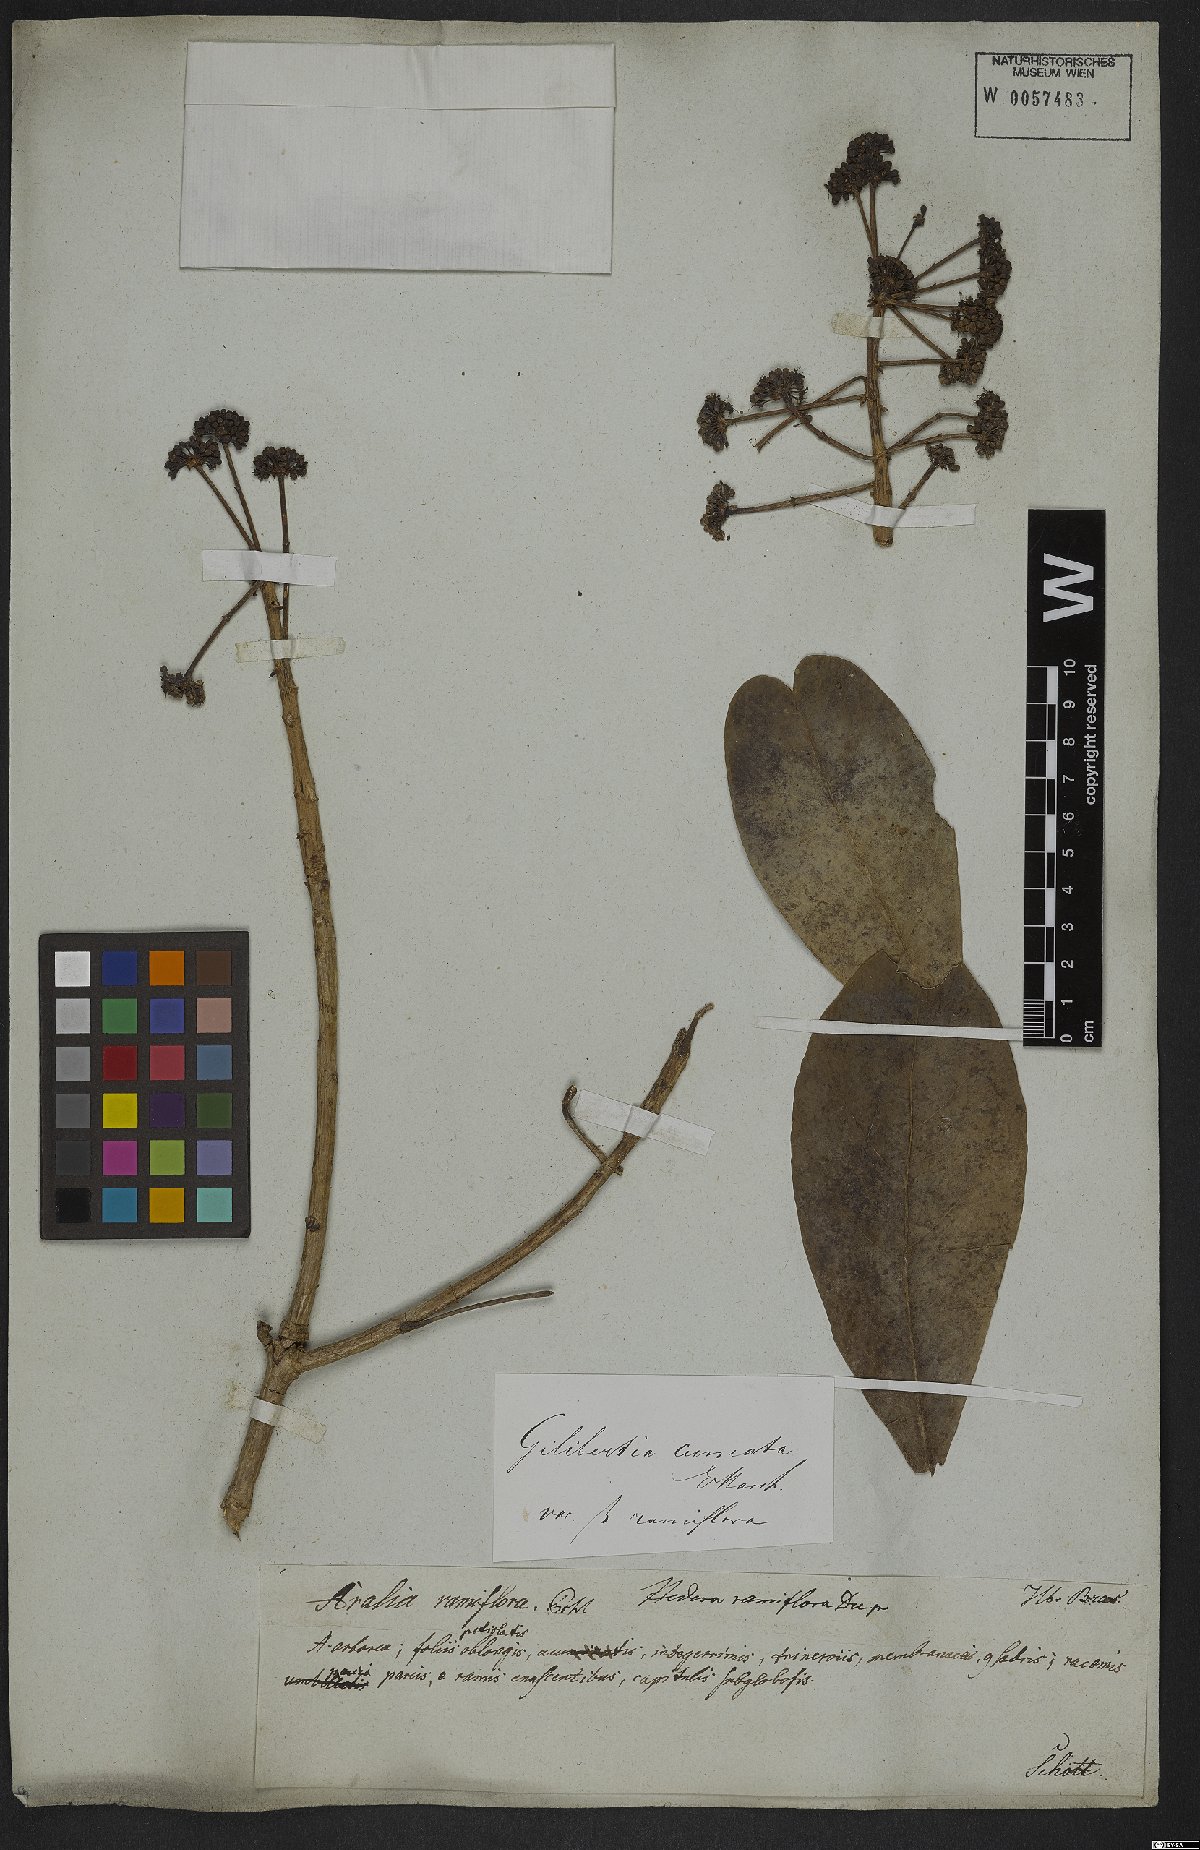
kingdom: Plantae
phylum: Tracheophyta
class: Magnoliopsida
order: Apiales
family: Araliaceae
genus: Dendropanax
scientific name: Dendropanax cuneatus
